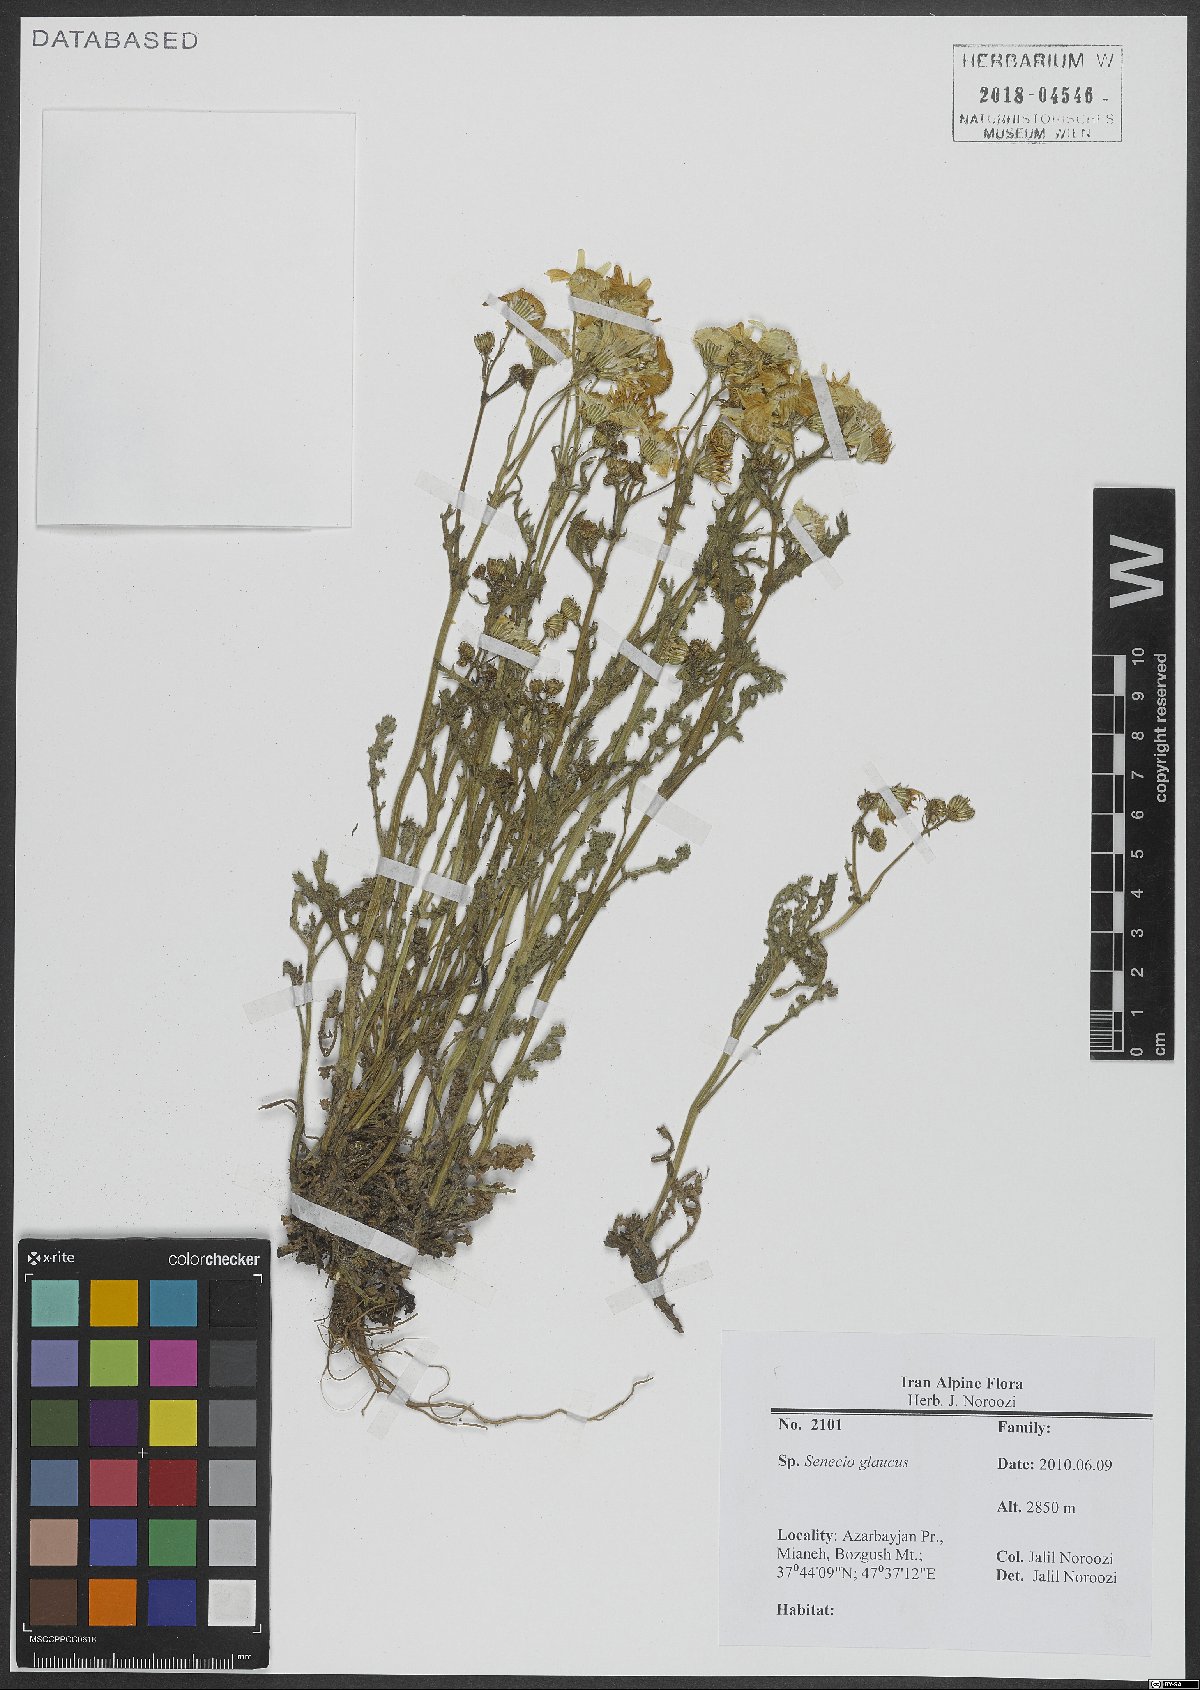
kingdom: Plantae
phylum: Tracheophyta
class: Magnoliopsida
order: Asterales
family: Asteraceae
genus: Senecio
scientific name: Senecio glaucus
